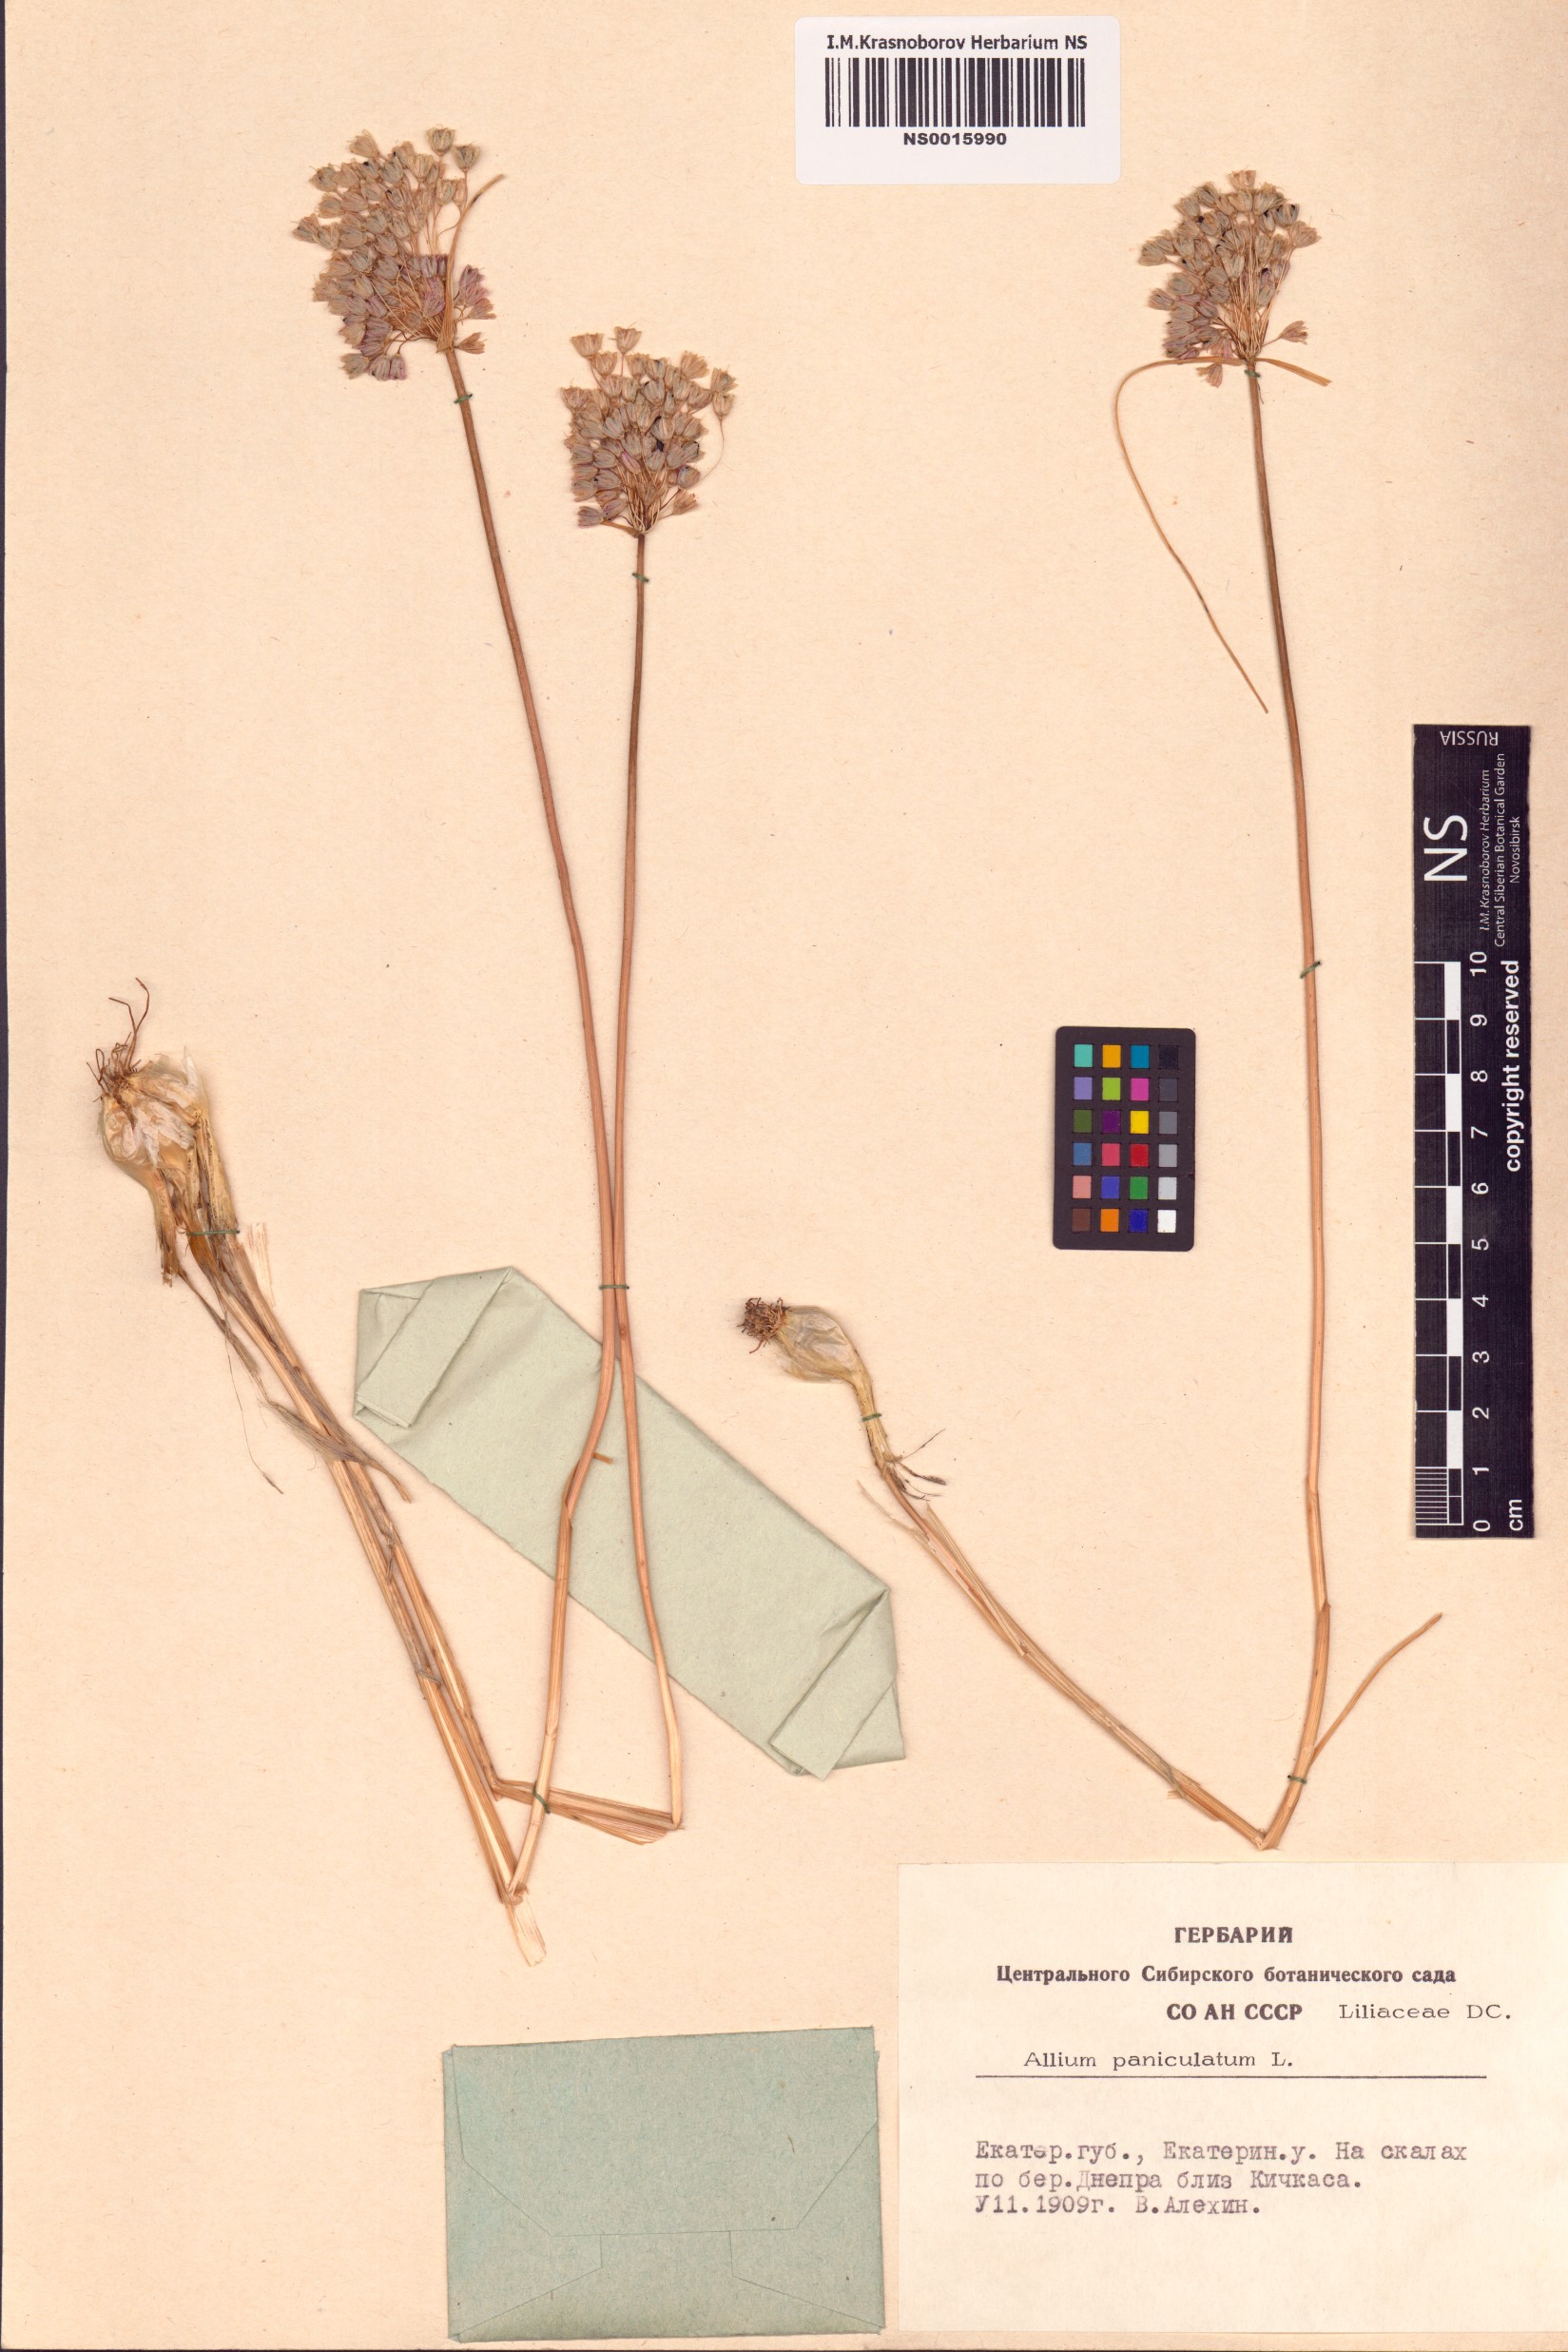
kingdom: Plantae
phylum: Tracheophyta
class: Liliopsida
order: Asparagales
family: Amaryllidaceae
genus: Allium
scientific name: Allium paniculatum
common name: Pale garlic
